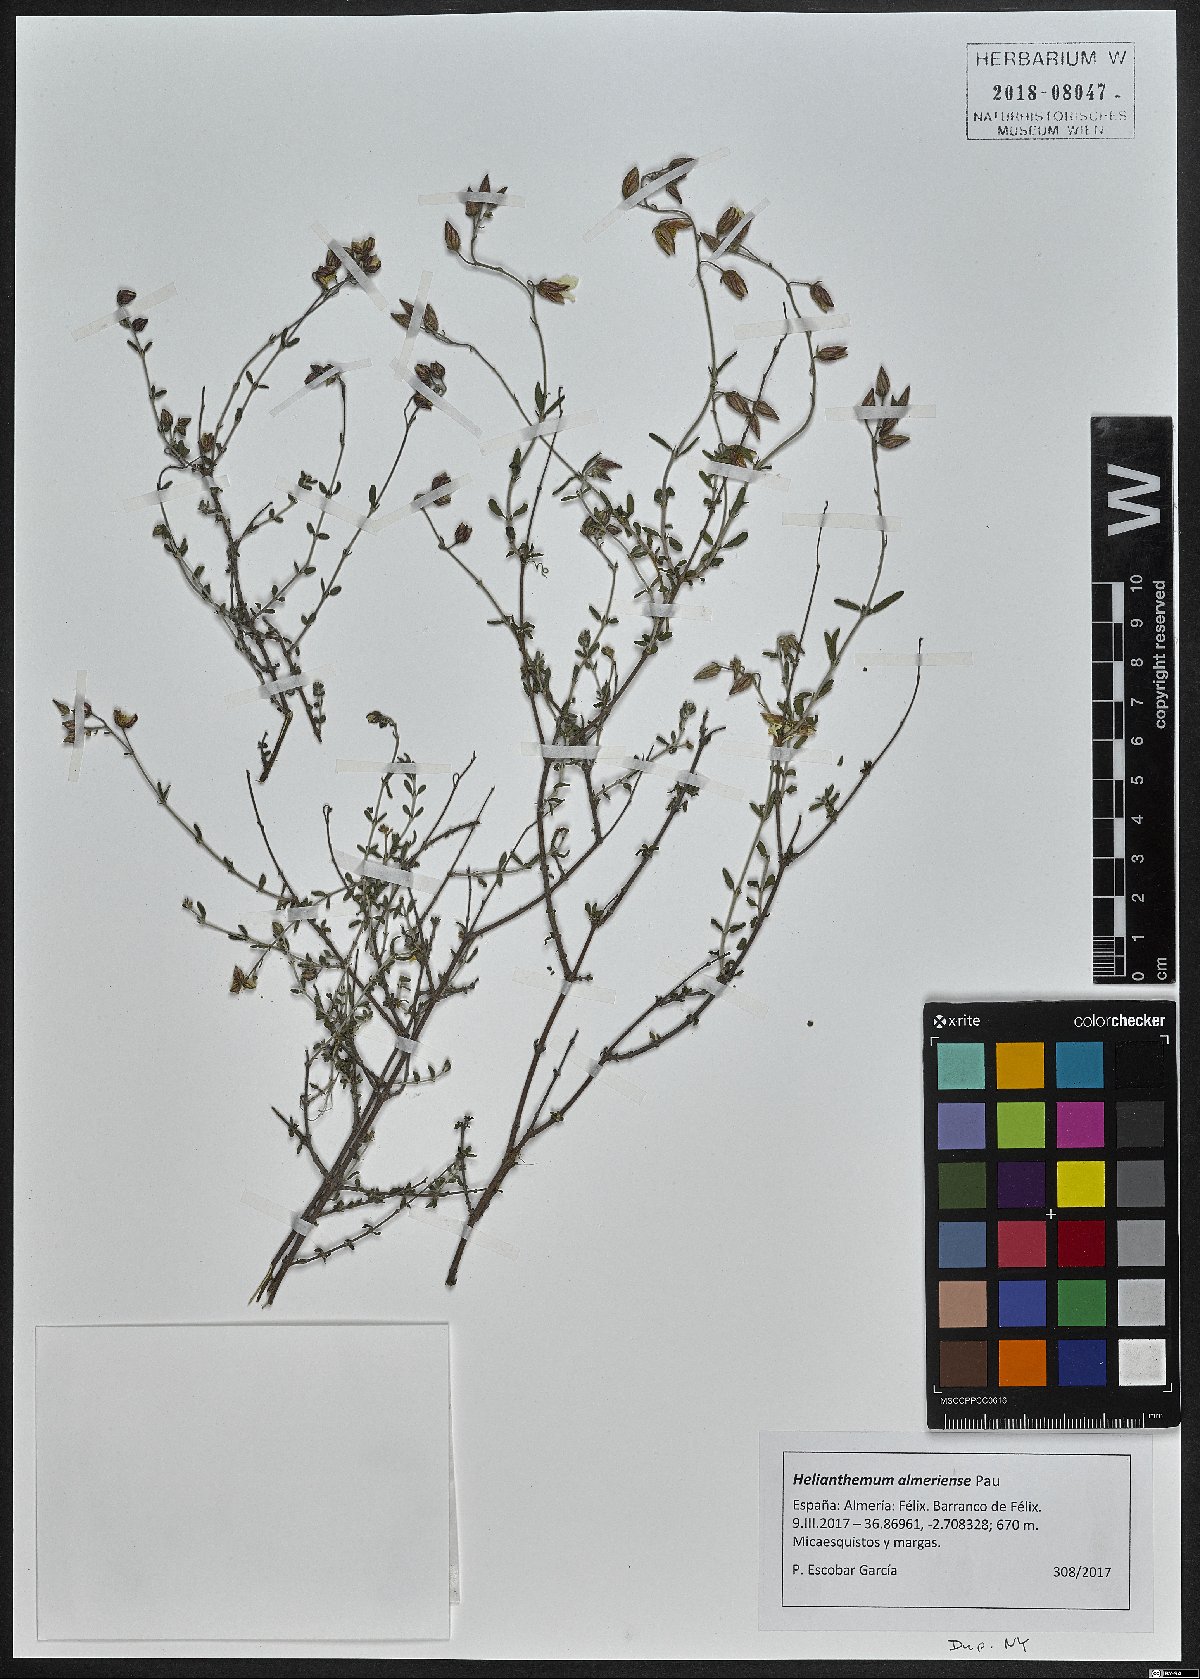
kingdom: Plantae
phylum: Tracheophyta
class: Magnoliopsida
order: Malvales
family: Cistaceae
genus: Helianthemum
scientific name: Helianthemum almeriense
